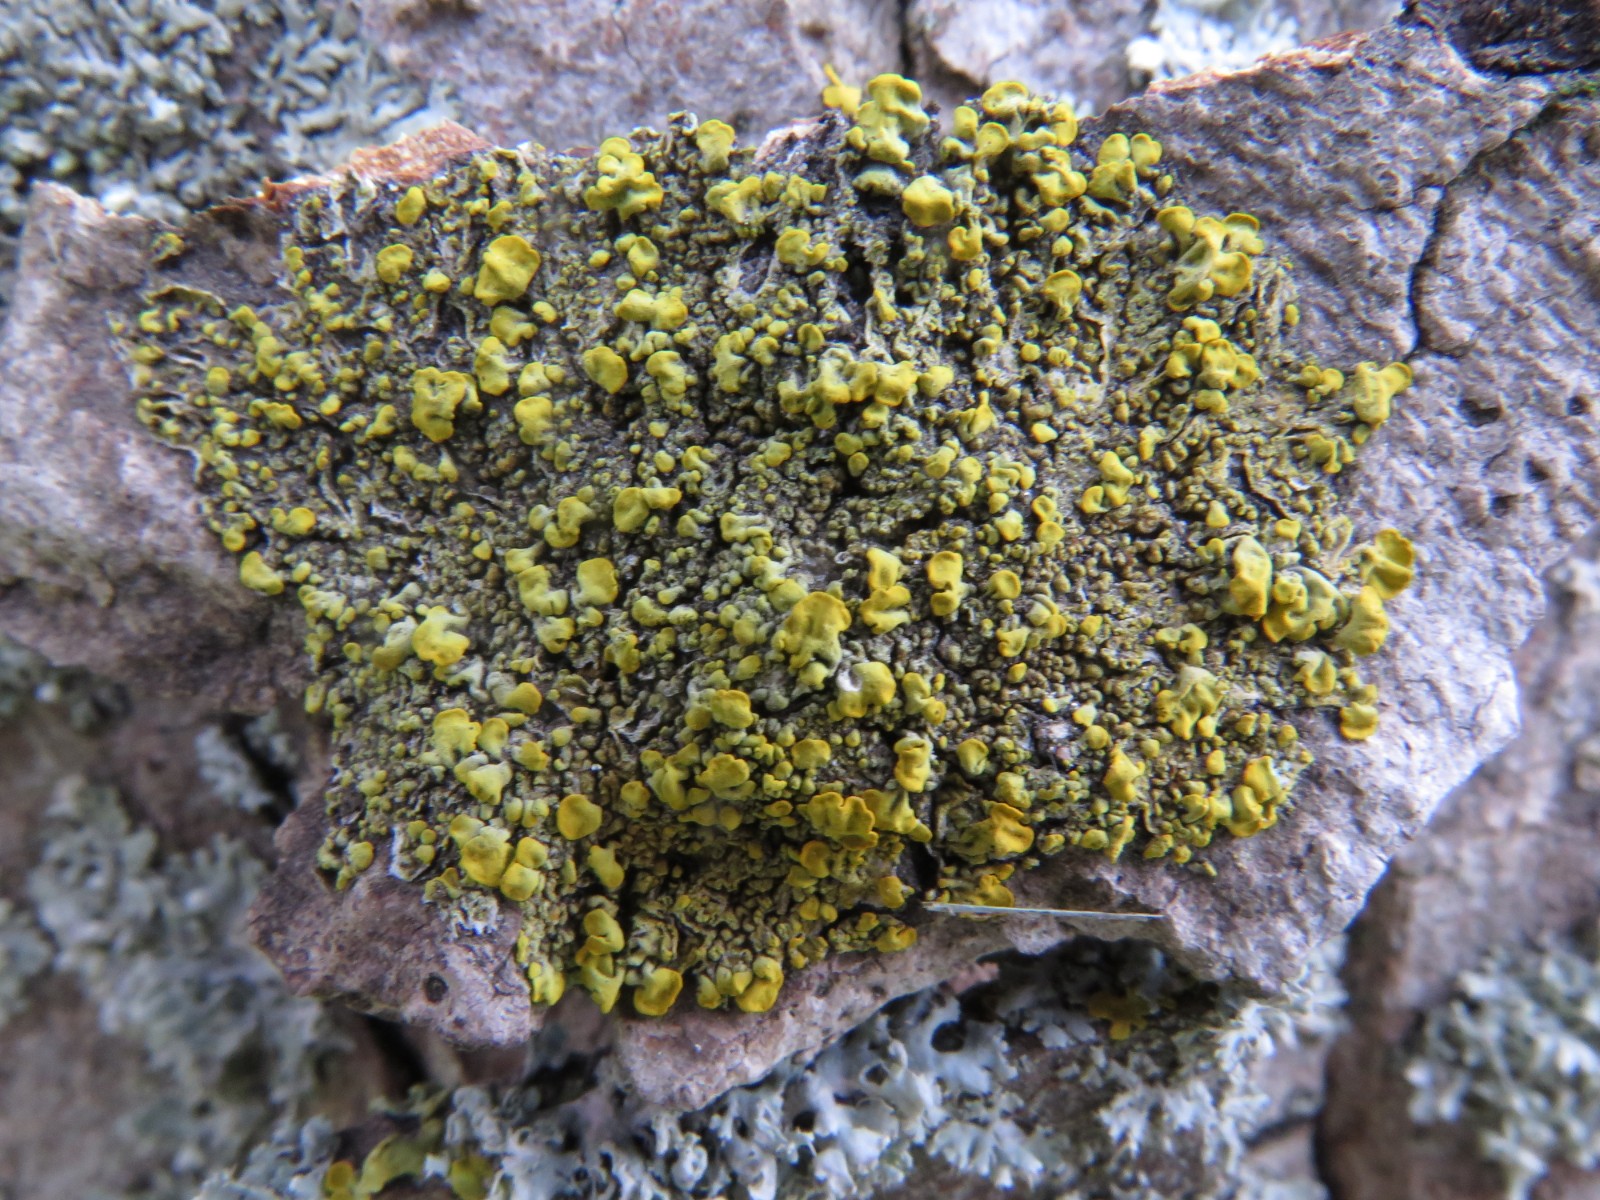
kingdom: Fungi
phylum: Ascomycota
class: Lecanoromycetes
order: Teloschistales
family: Teloschistaceae
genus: Xanthoria
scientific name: Xanthoria calcicola
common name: vortet væggelav
